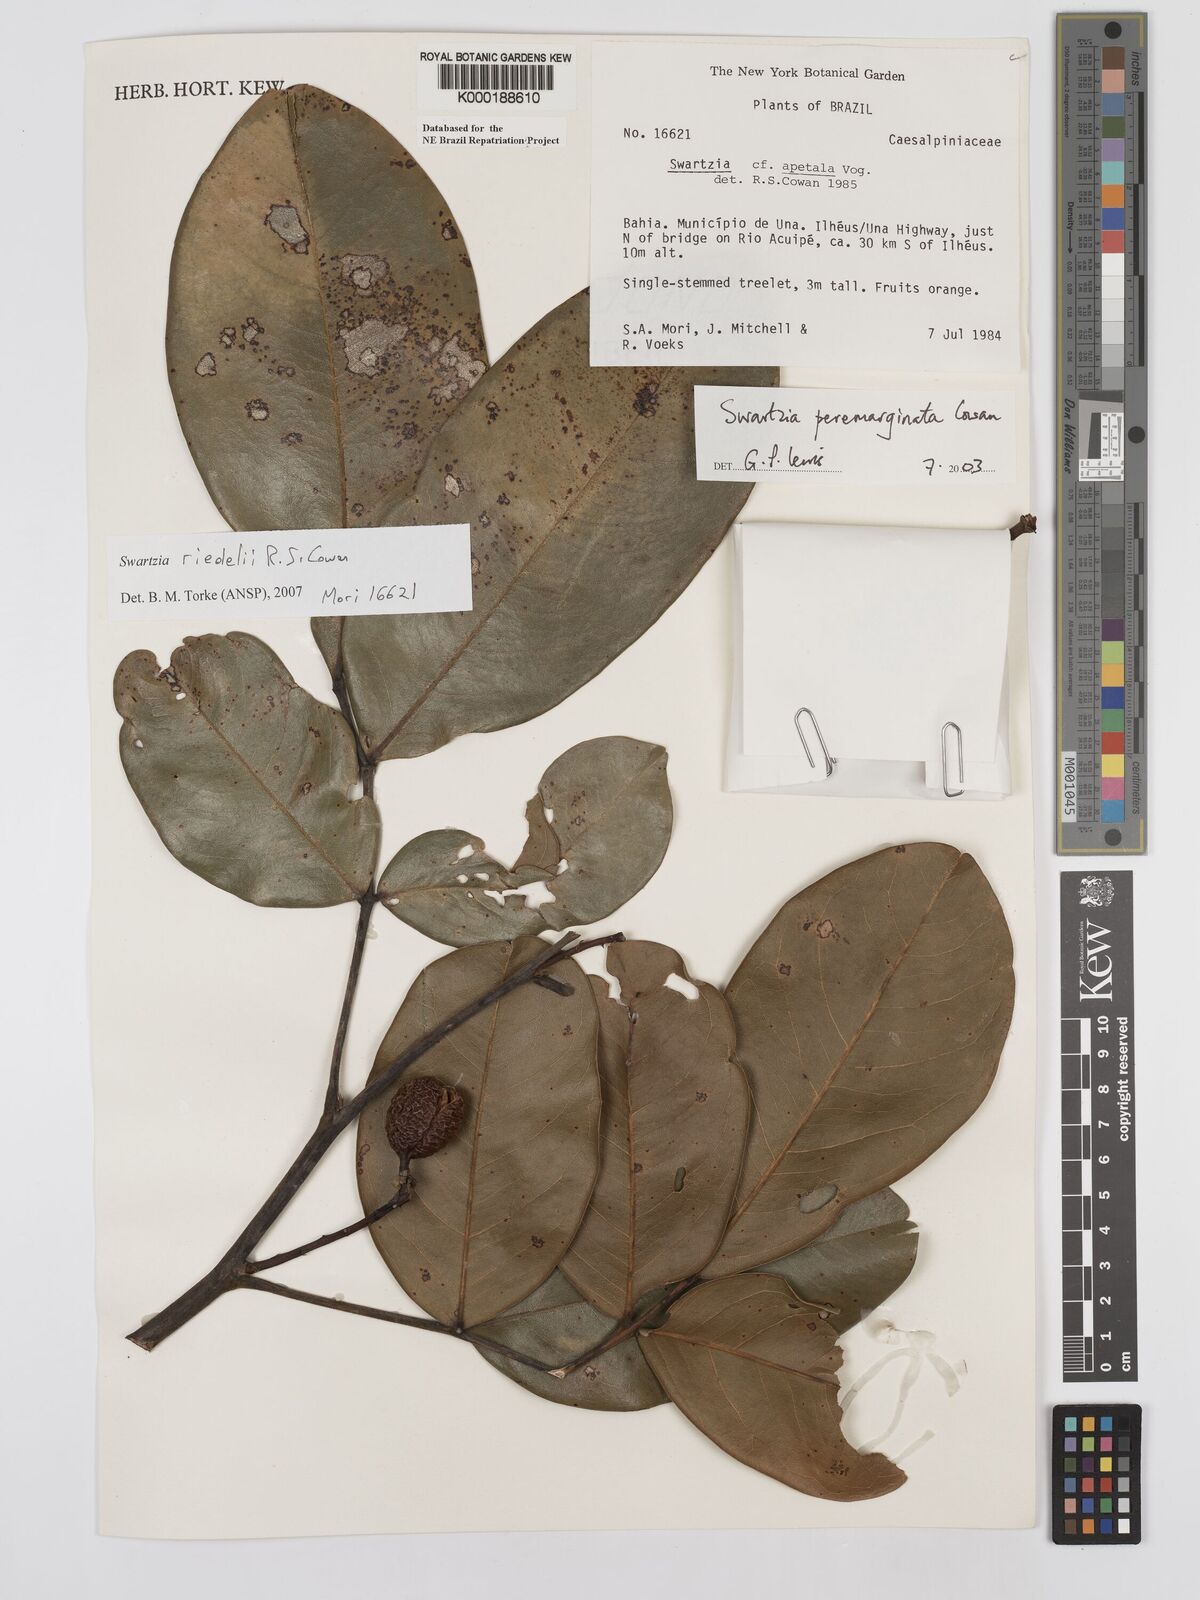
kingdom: Plantae
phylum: Tracheophyta
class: Magnoliopsida
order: Fabales
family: Fabaceae
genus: Swartzia
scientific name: Swartzia riedelii
